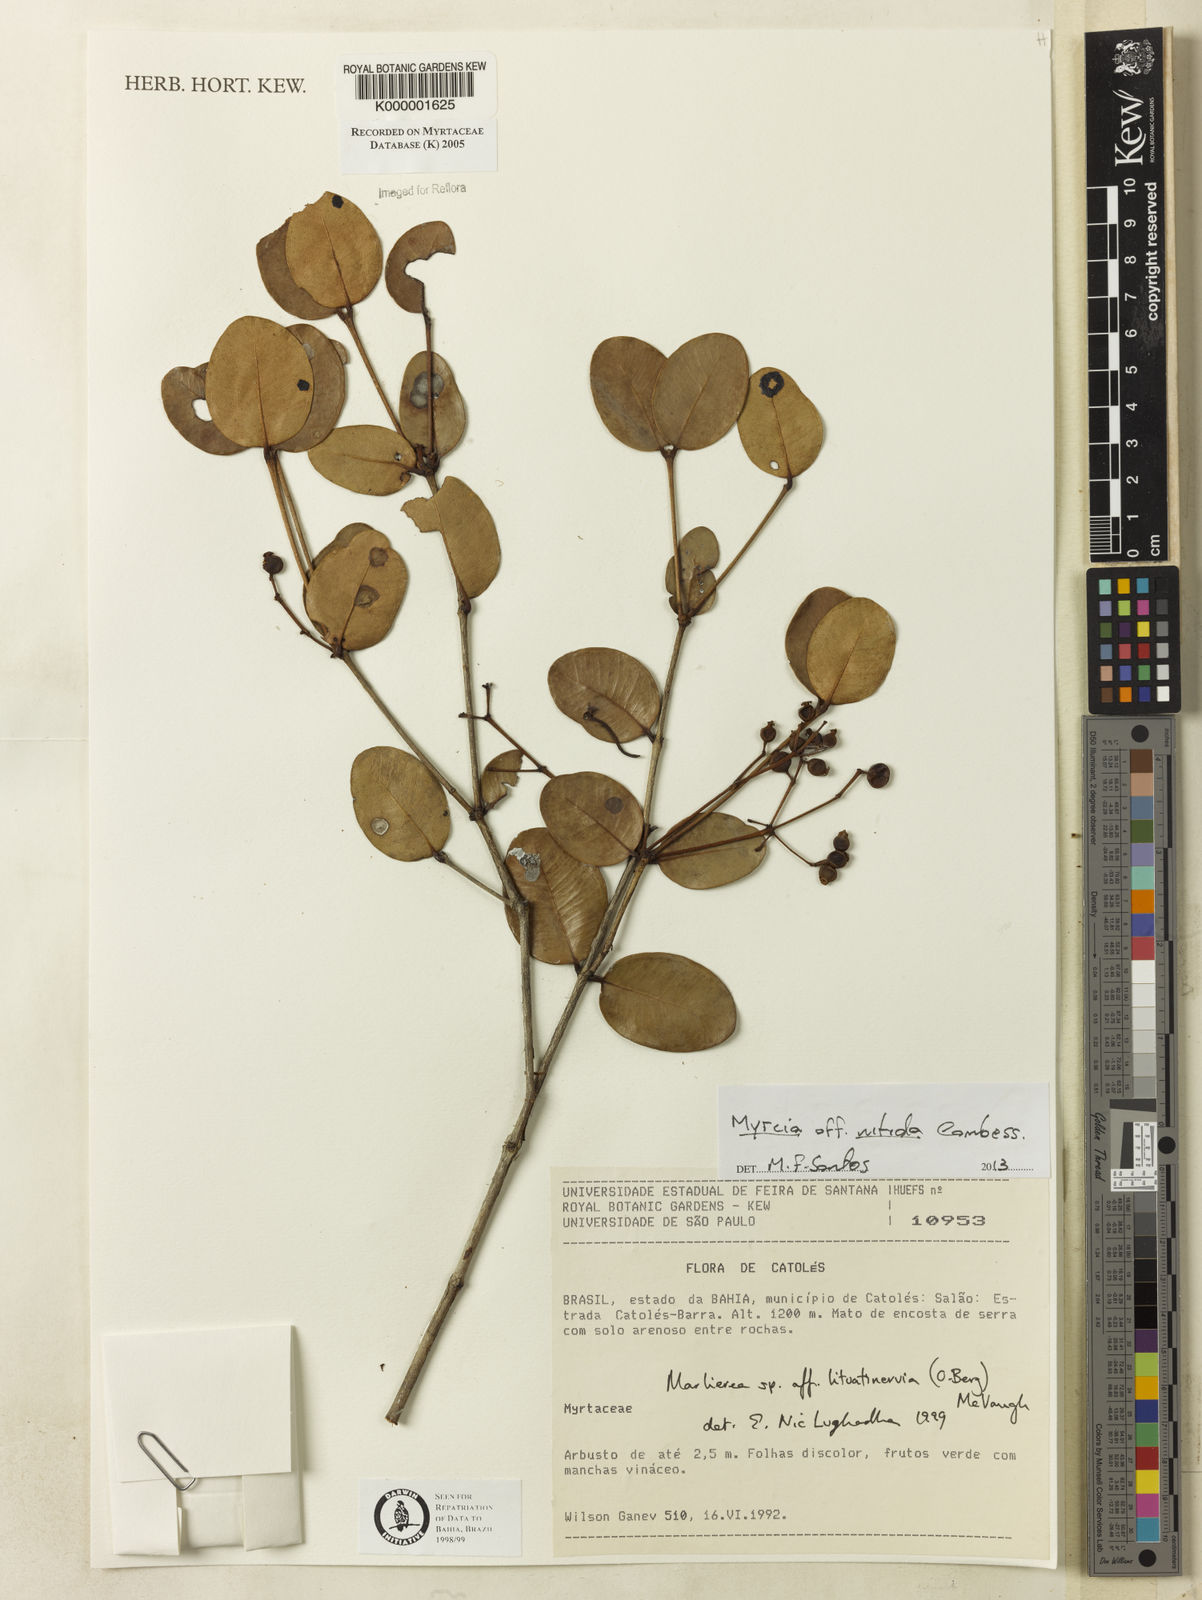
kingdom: Plantae
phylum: Tracheophyta
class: Magnoliopsida
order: Myrtales
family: Myrtaceae
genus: Myrcia
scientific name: Myrcia lituatinervia
